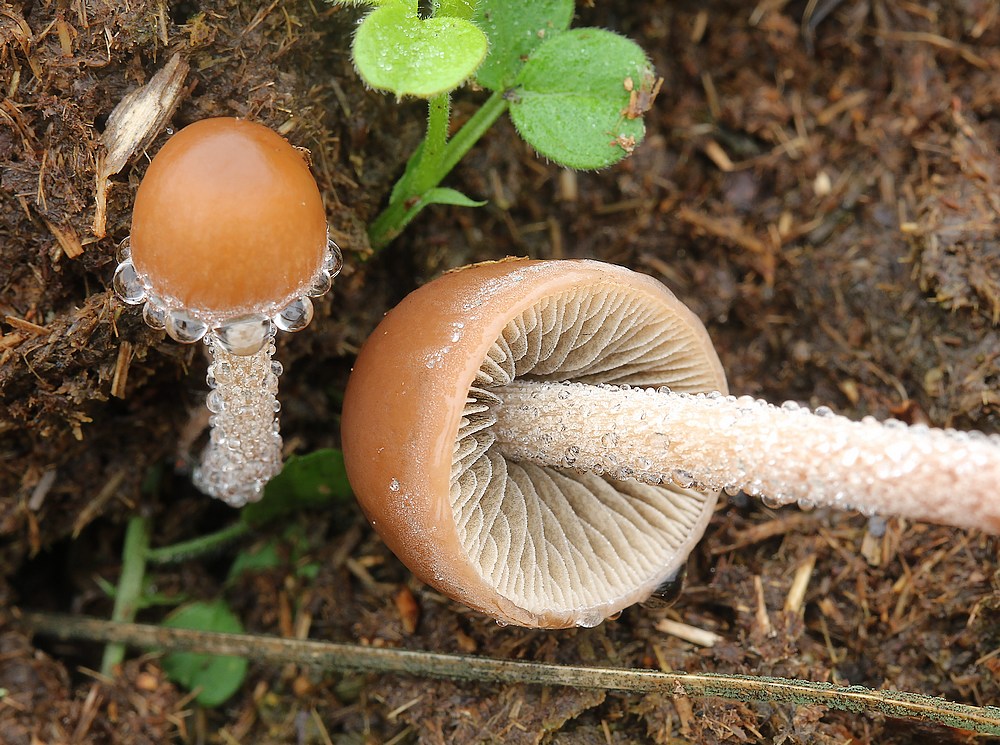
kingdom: Fungi
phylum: Basidiomycota
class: Agaricomycetes
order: Agaricales
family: Bolbitiaceae
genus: Panaeolus
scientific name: Panaeolus
